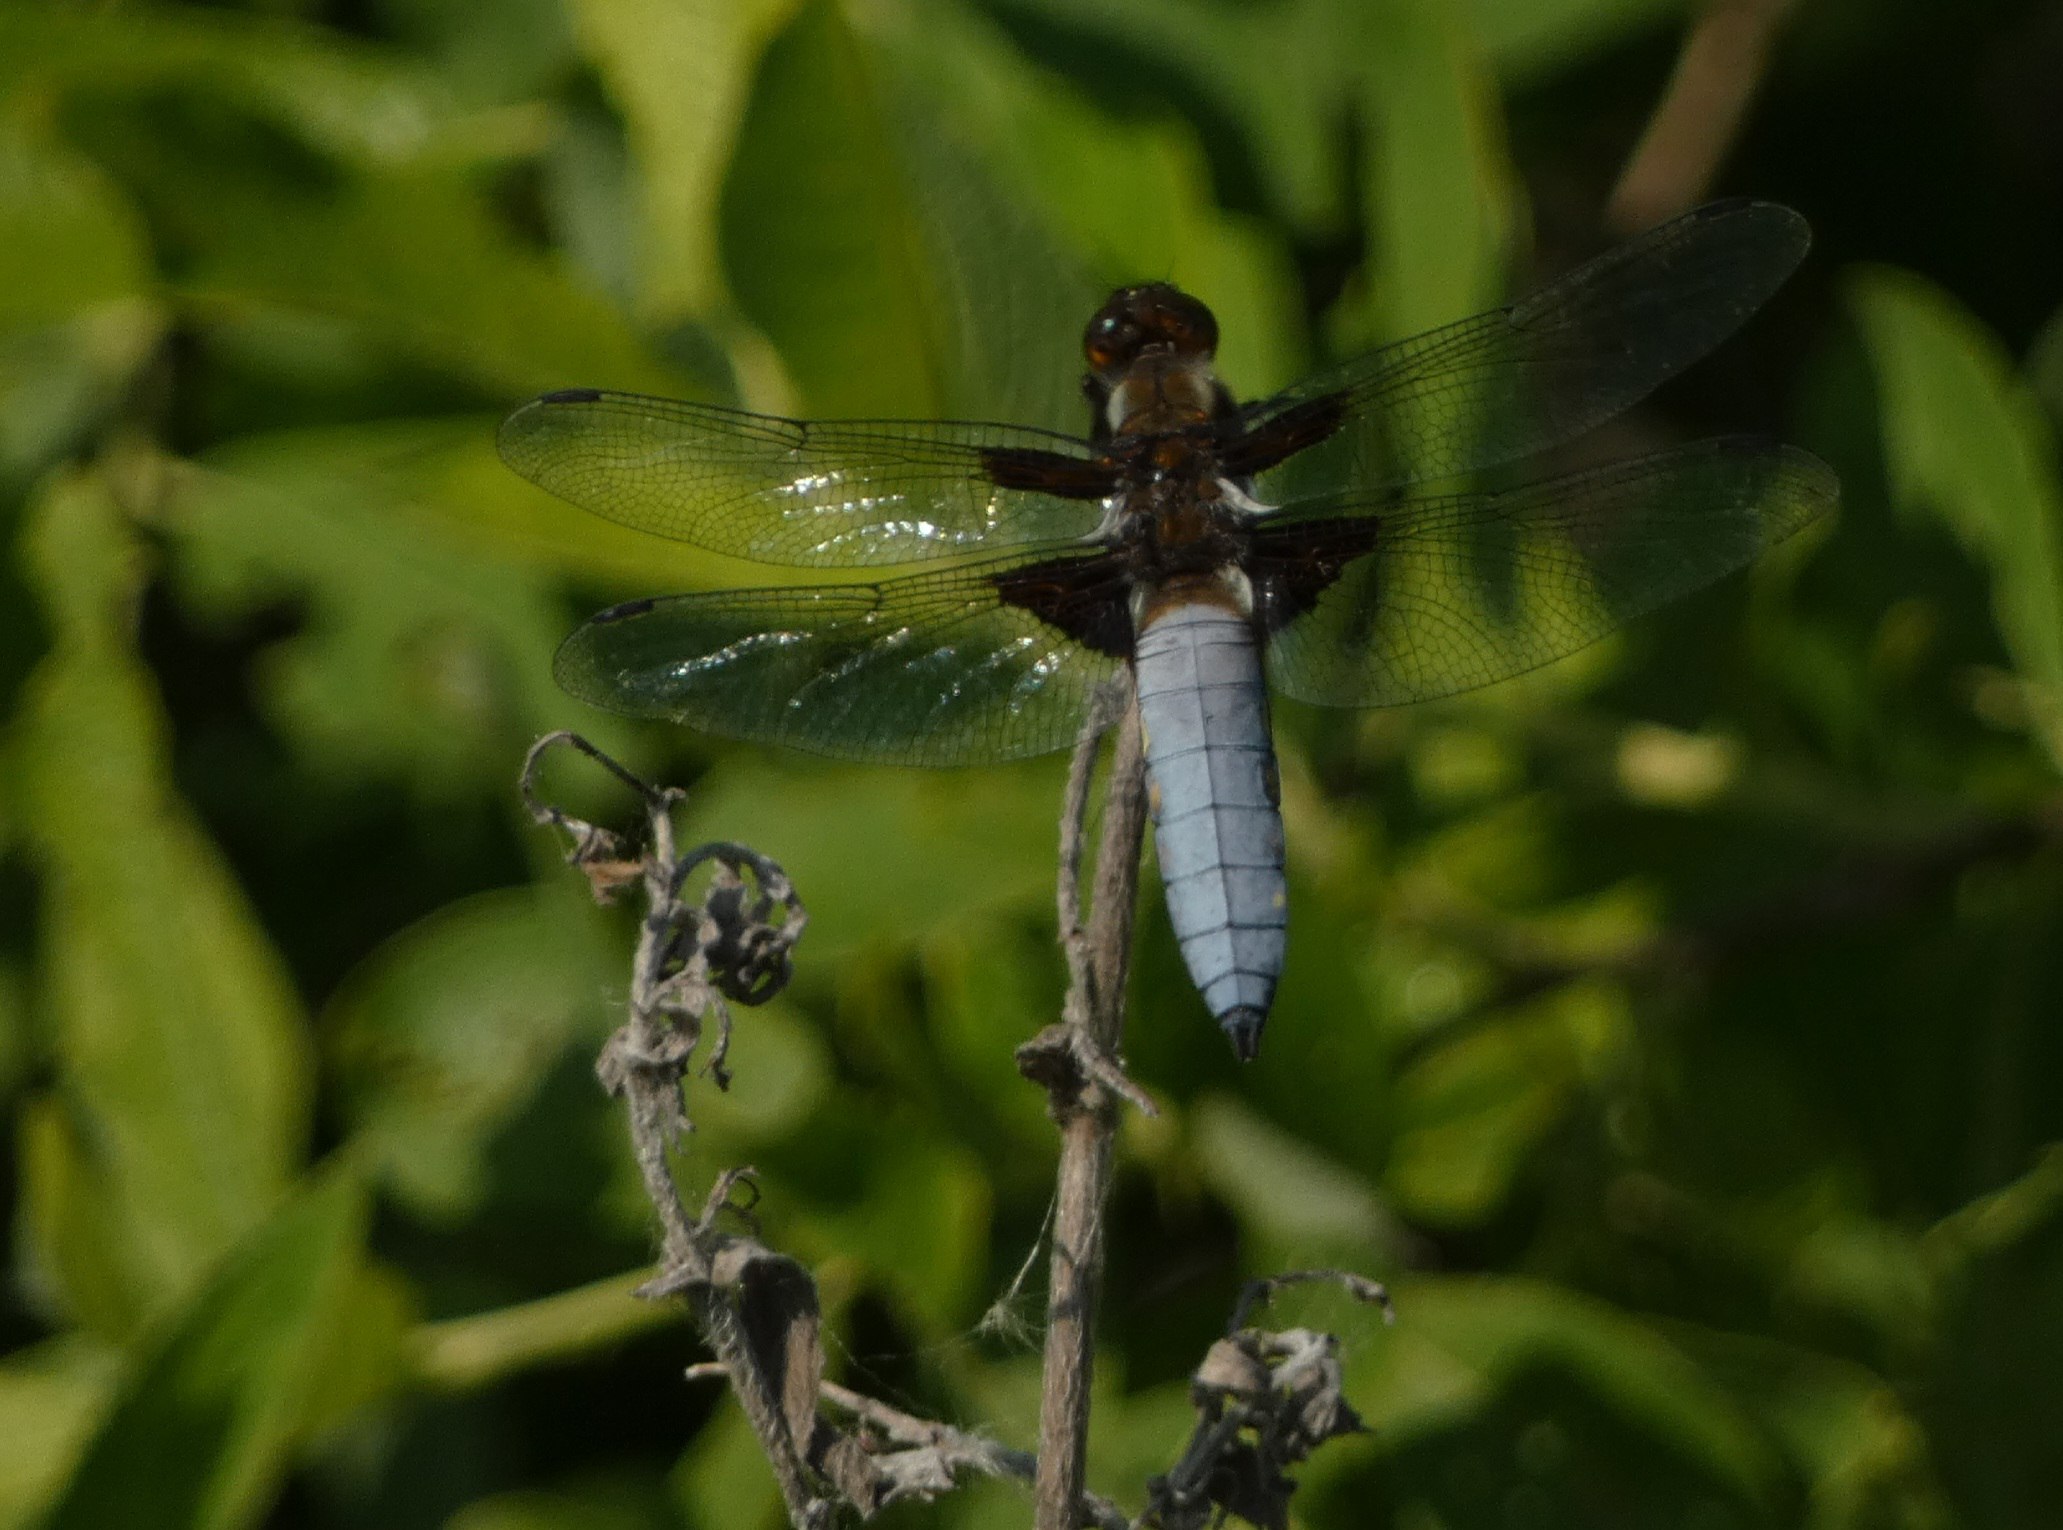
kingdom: Animalia
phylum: Arthropoda
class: Insecta
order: Odonata
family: Libellulidae
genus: Libellula
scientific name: Libellula depressa
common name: Blå libel
